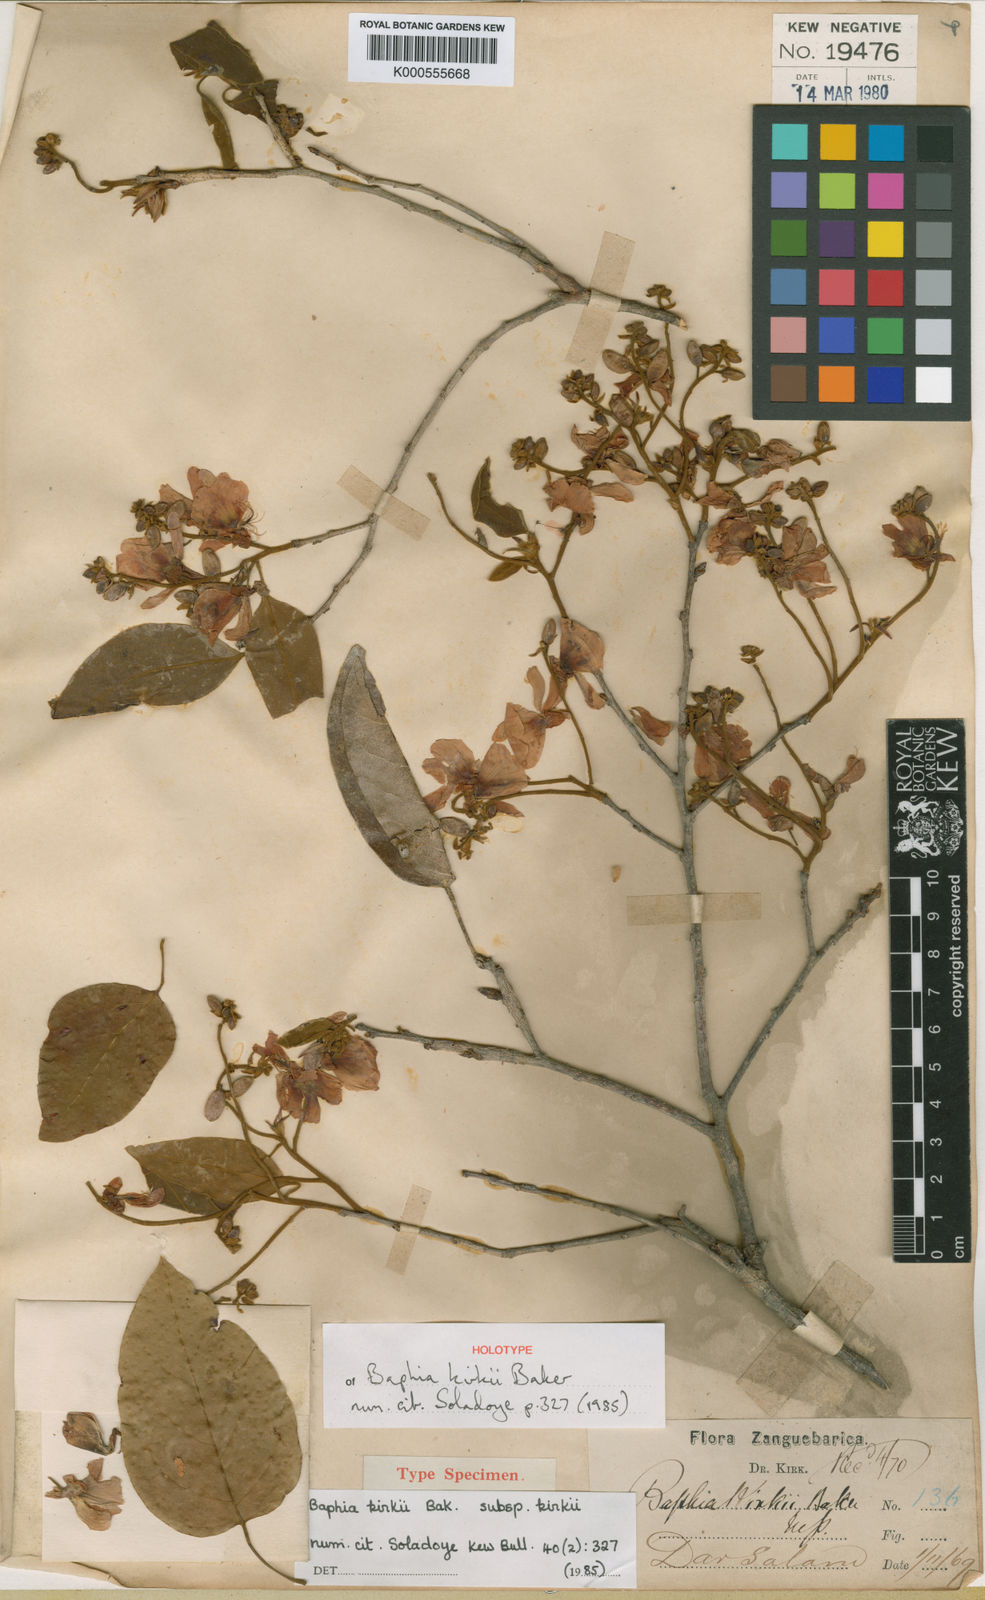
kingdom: Plantae
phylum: Tracheophyta
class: Magnoliopsida
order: Fabales
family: Fabaceae
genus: Baphia
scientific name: Baphia kirkii
